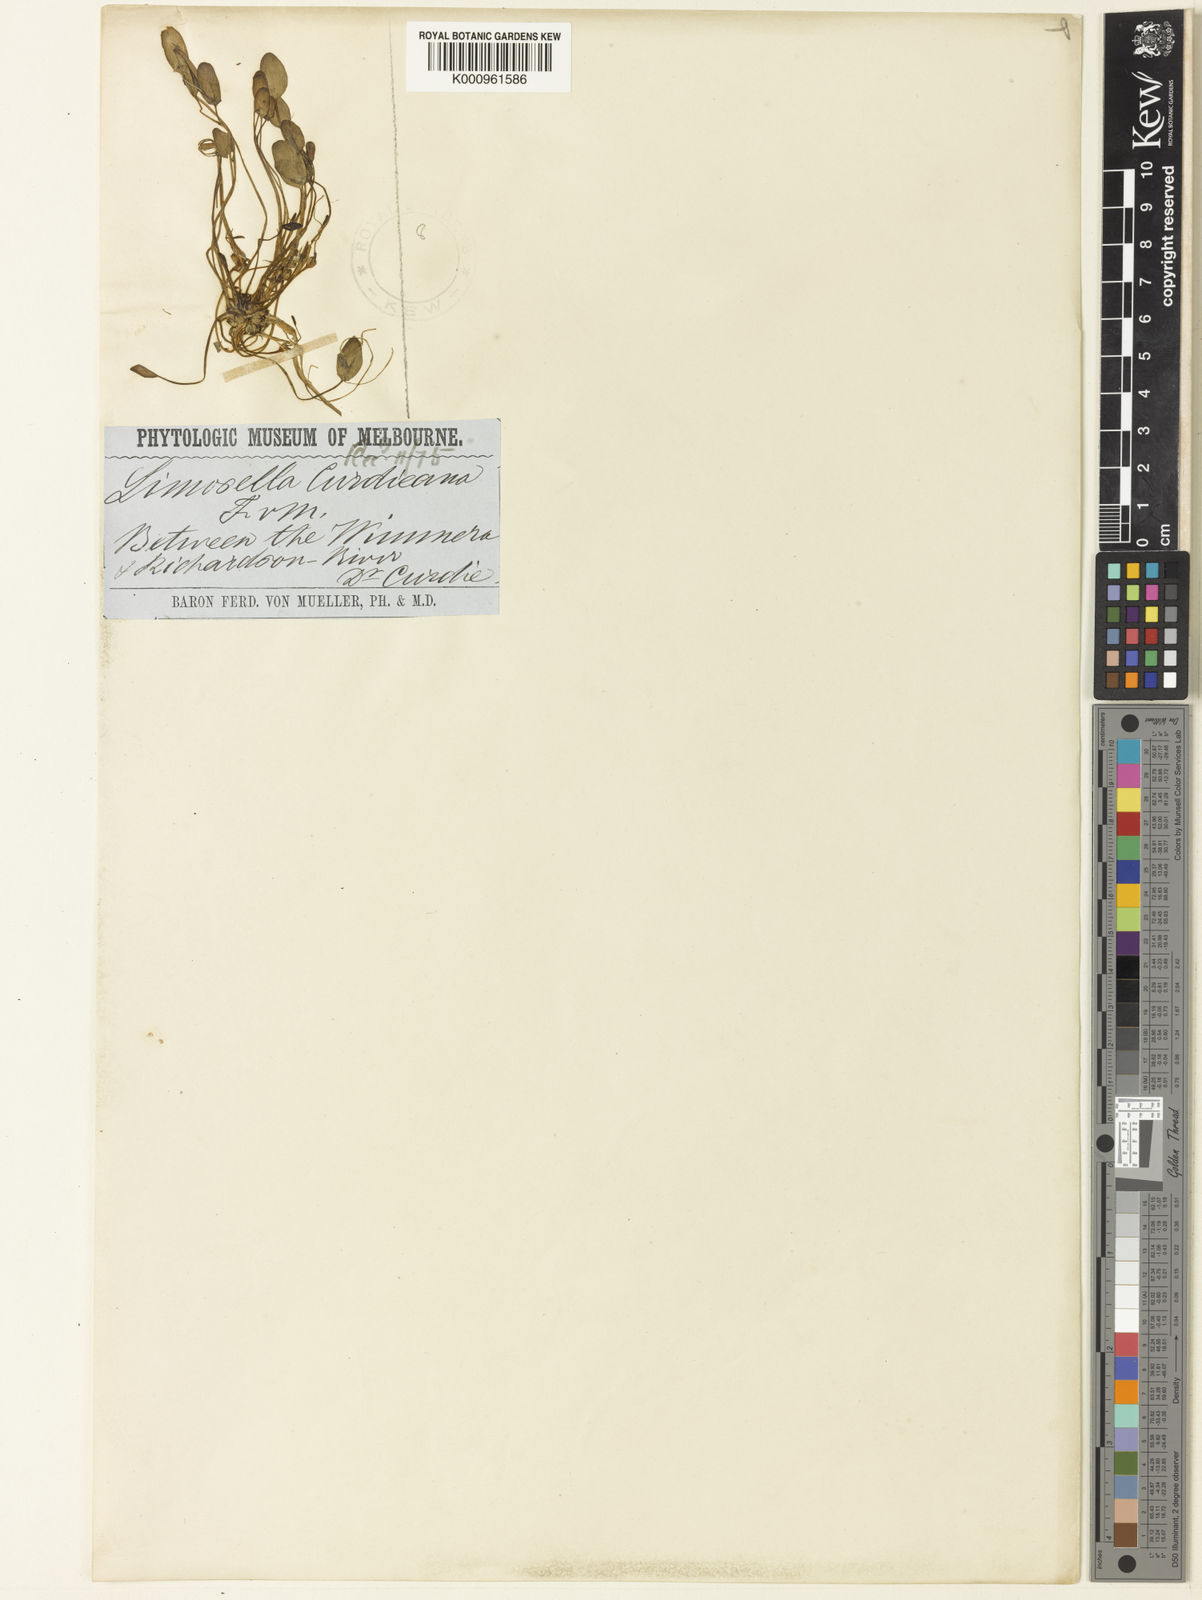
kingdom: Plantae
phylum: Tracheophyta
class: Magnoliopsida
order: Lamiales
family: Scrophulariaceae
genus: Limosella
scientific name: Limosella curdieana
